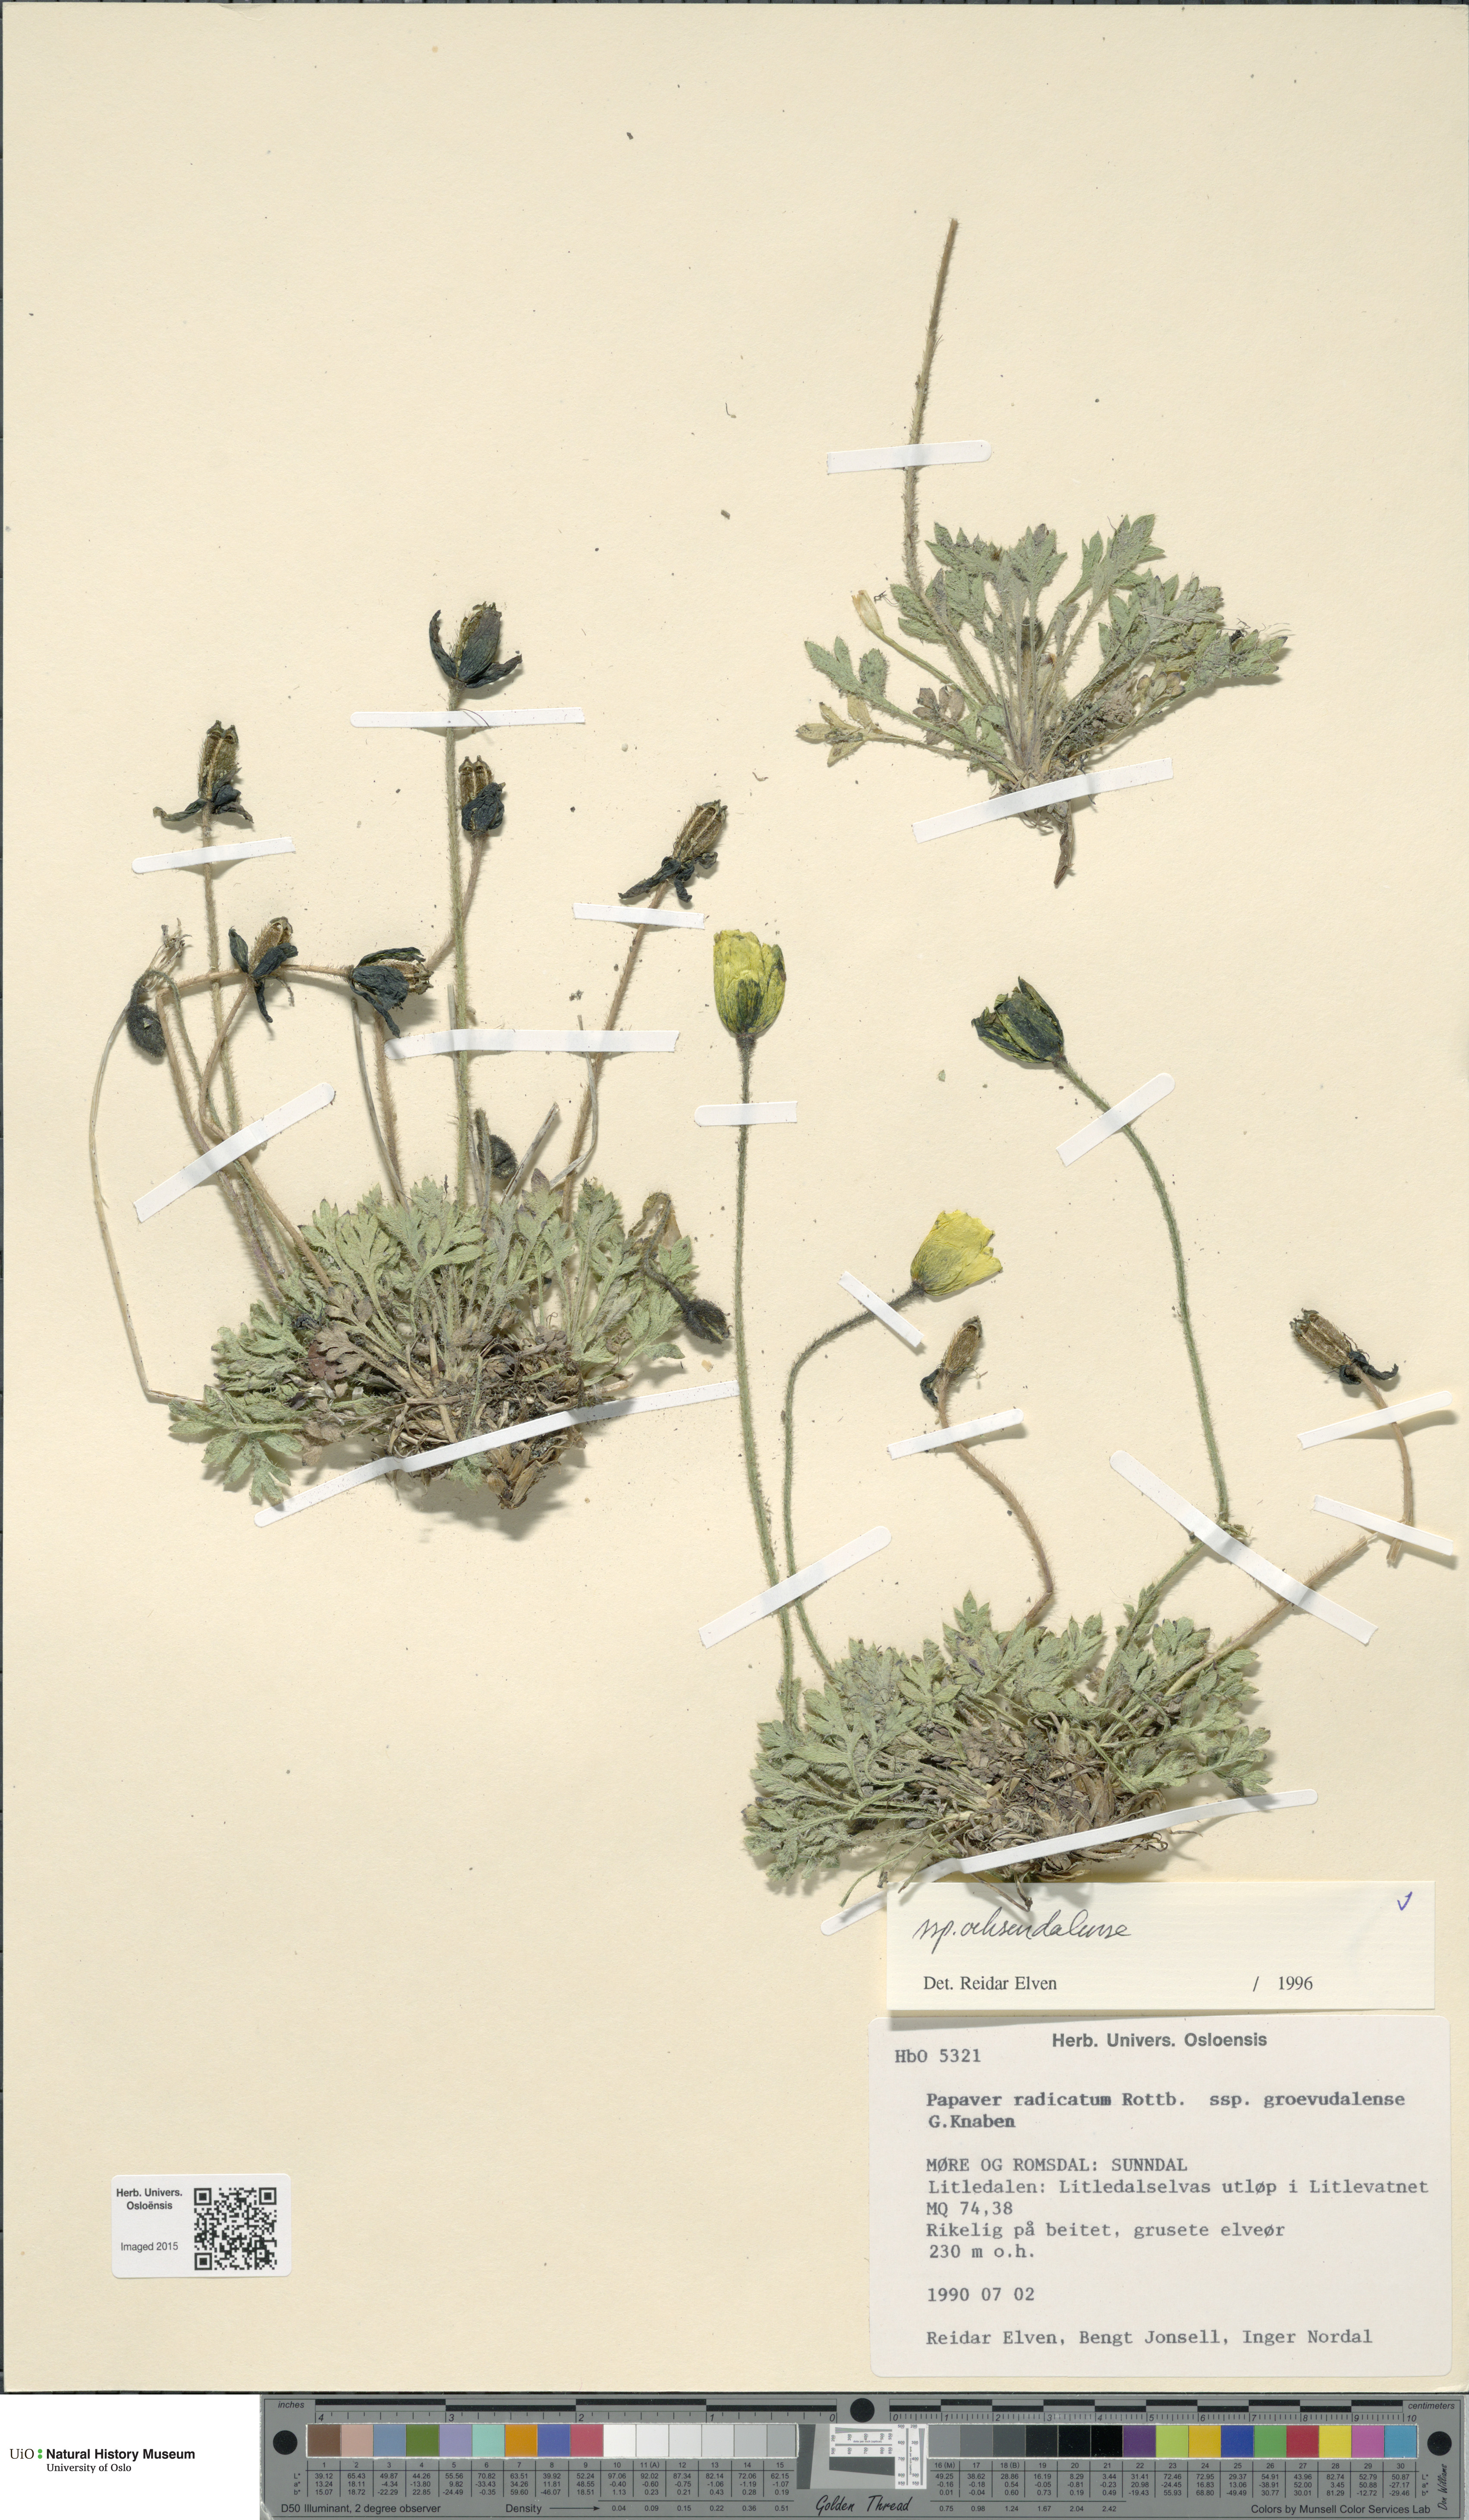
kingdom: Plantae
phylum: Tracheophyta
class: Magnoliopsida
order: Ranunculales
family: Papaveraceae
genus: Papaver
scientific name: Papaver radicatum
